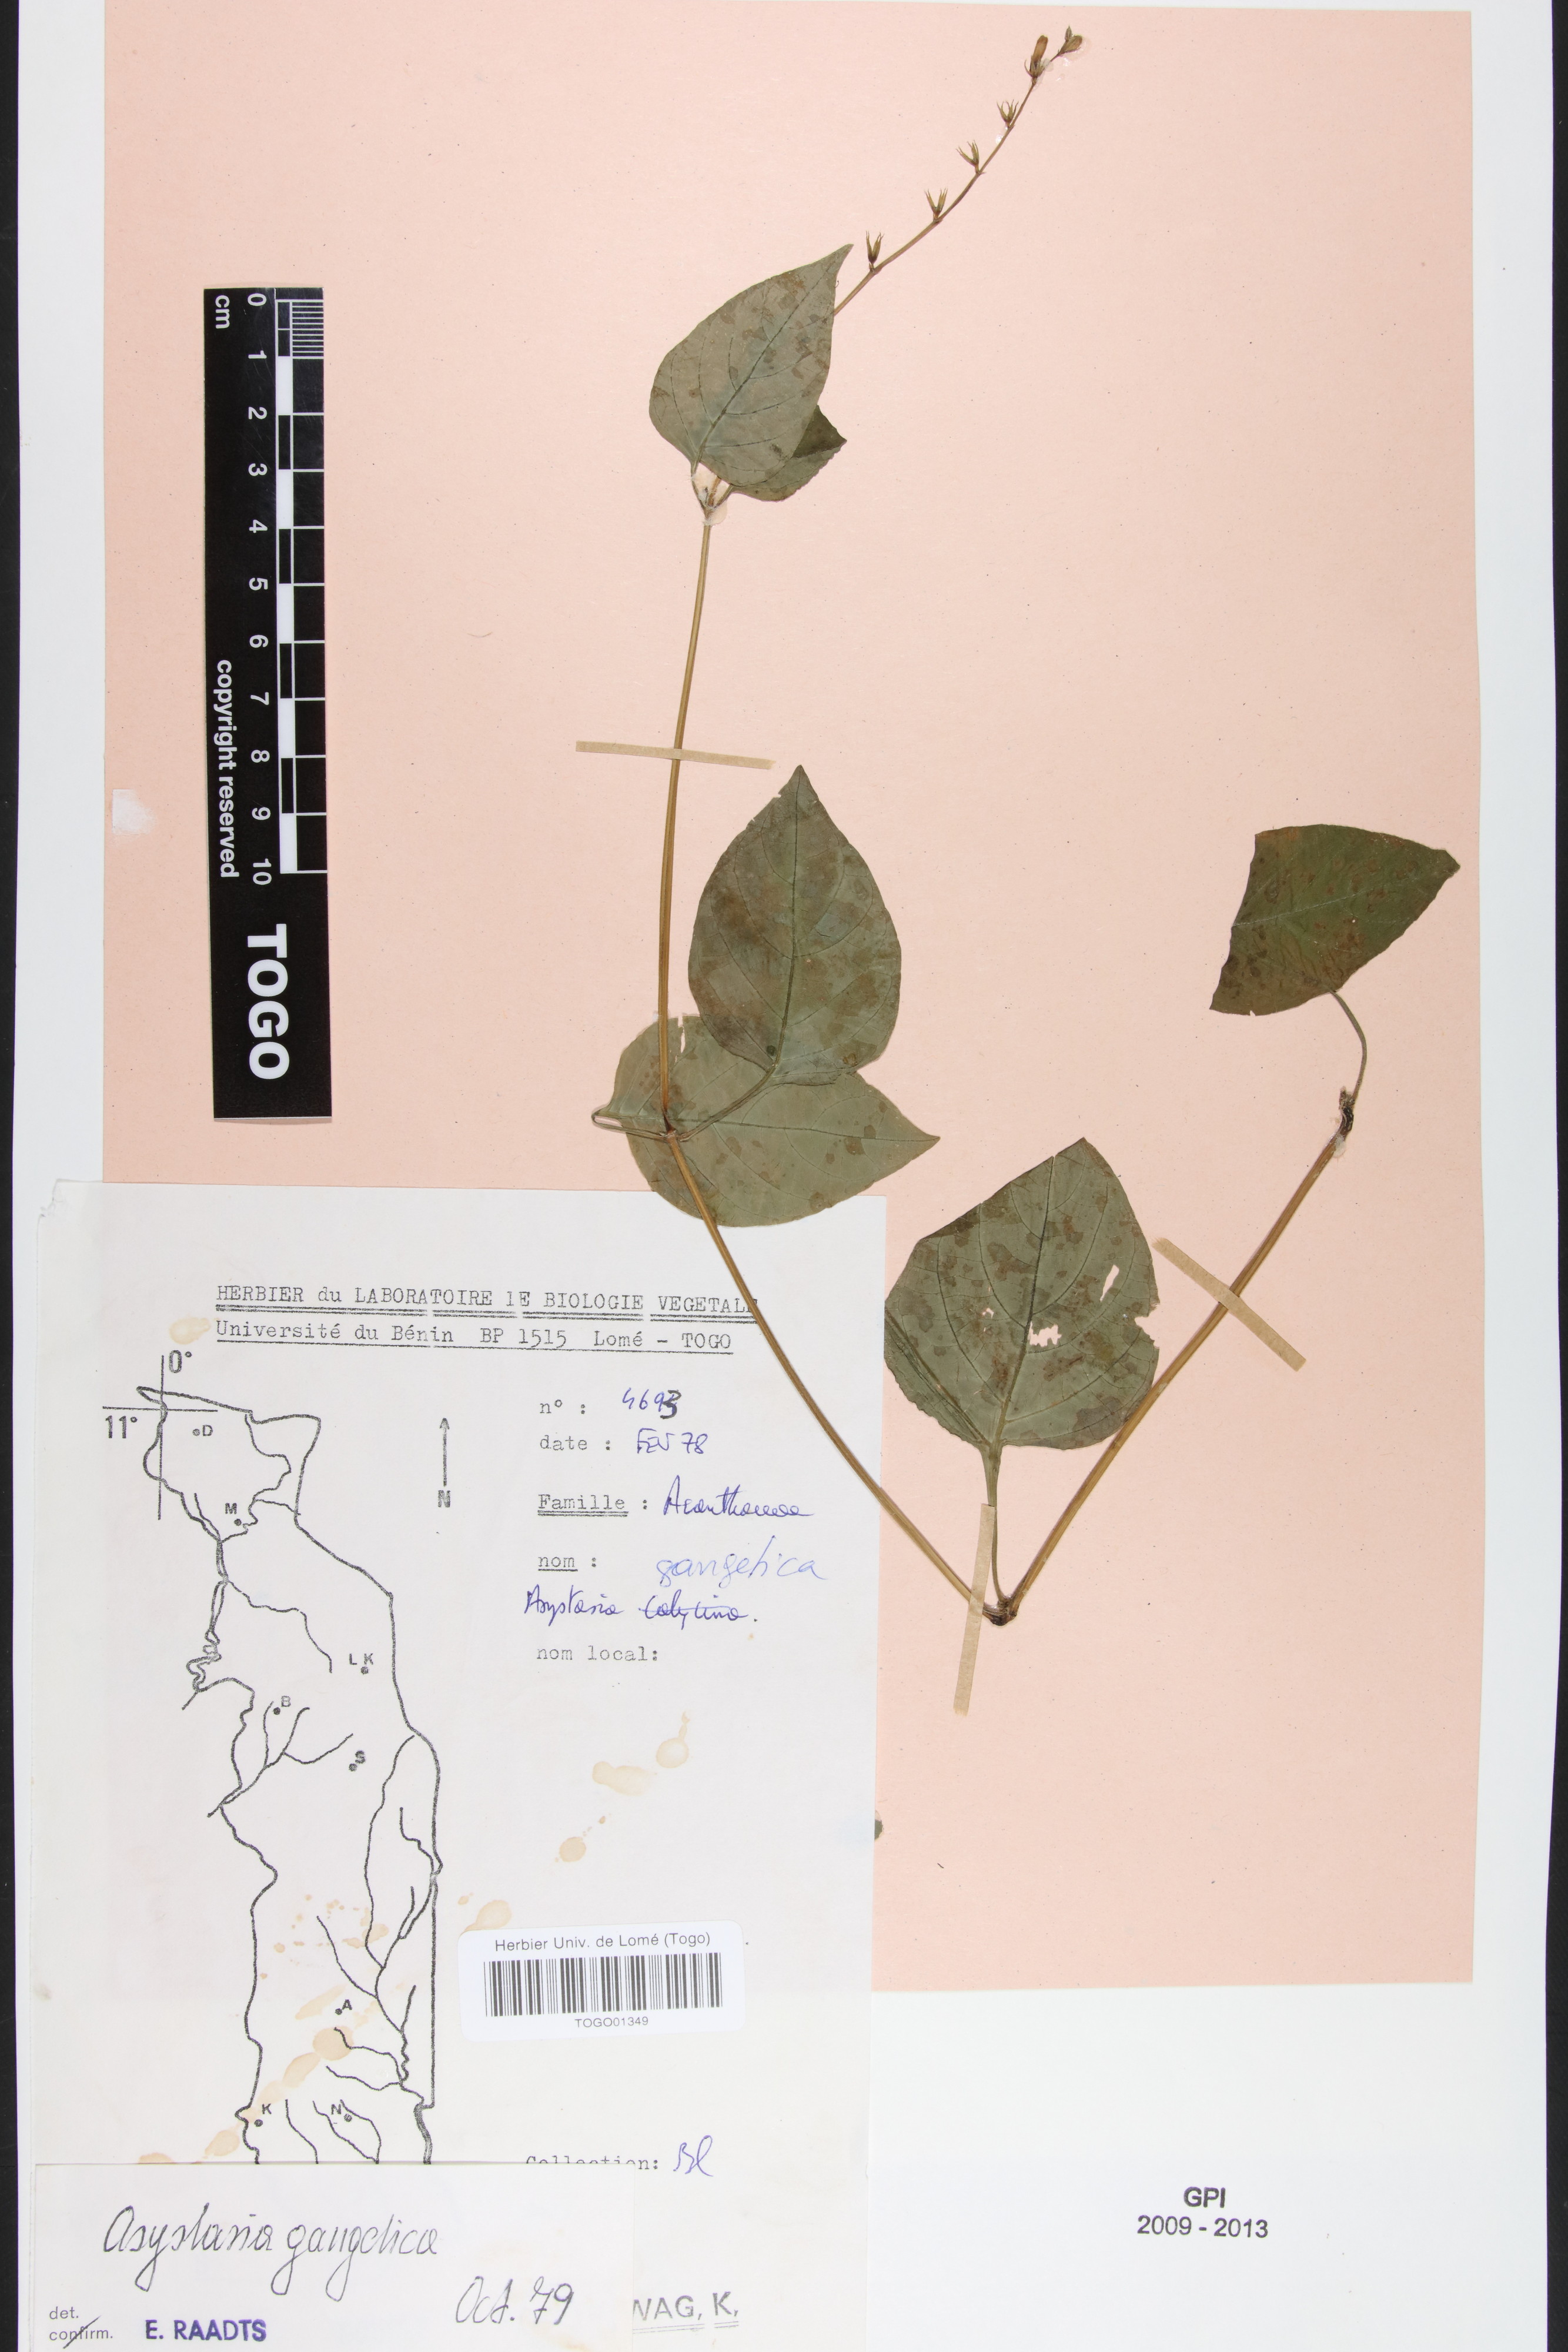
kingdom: Plantae
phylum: Tracheophyta
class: Magnoliopsida
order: Lamiales
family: Acanthaceae
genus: Asystasia
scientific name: Asystasia gangetica
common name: Chinese violet
